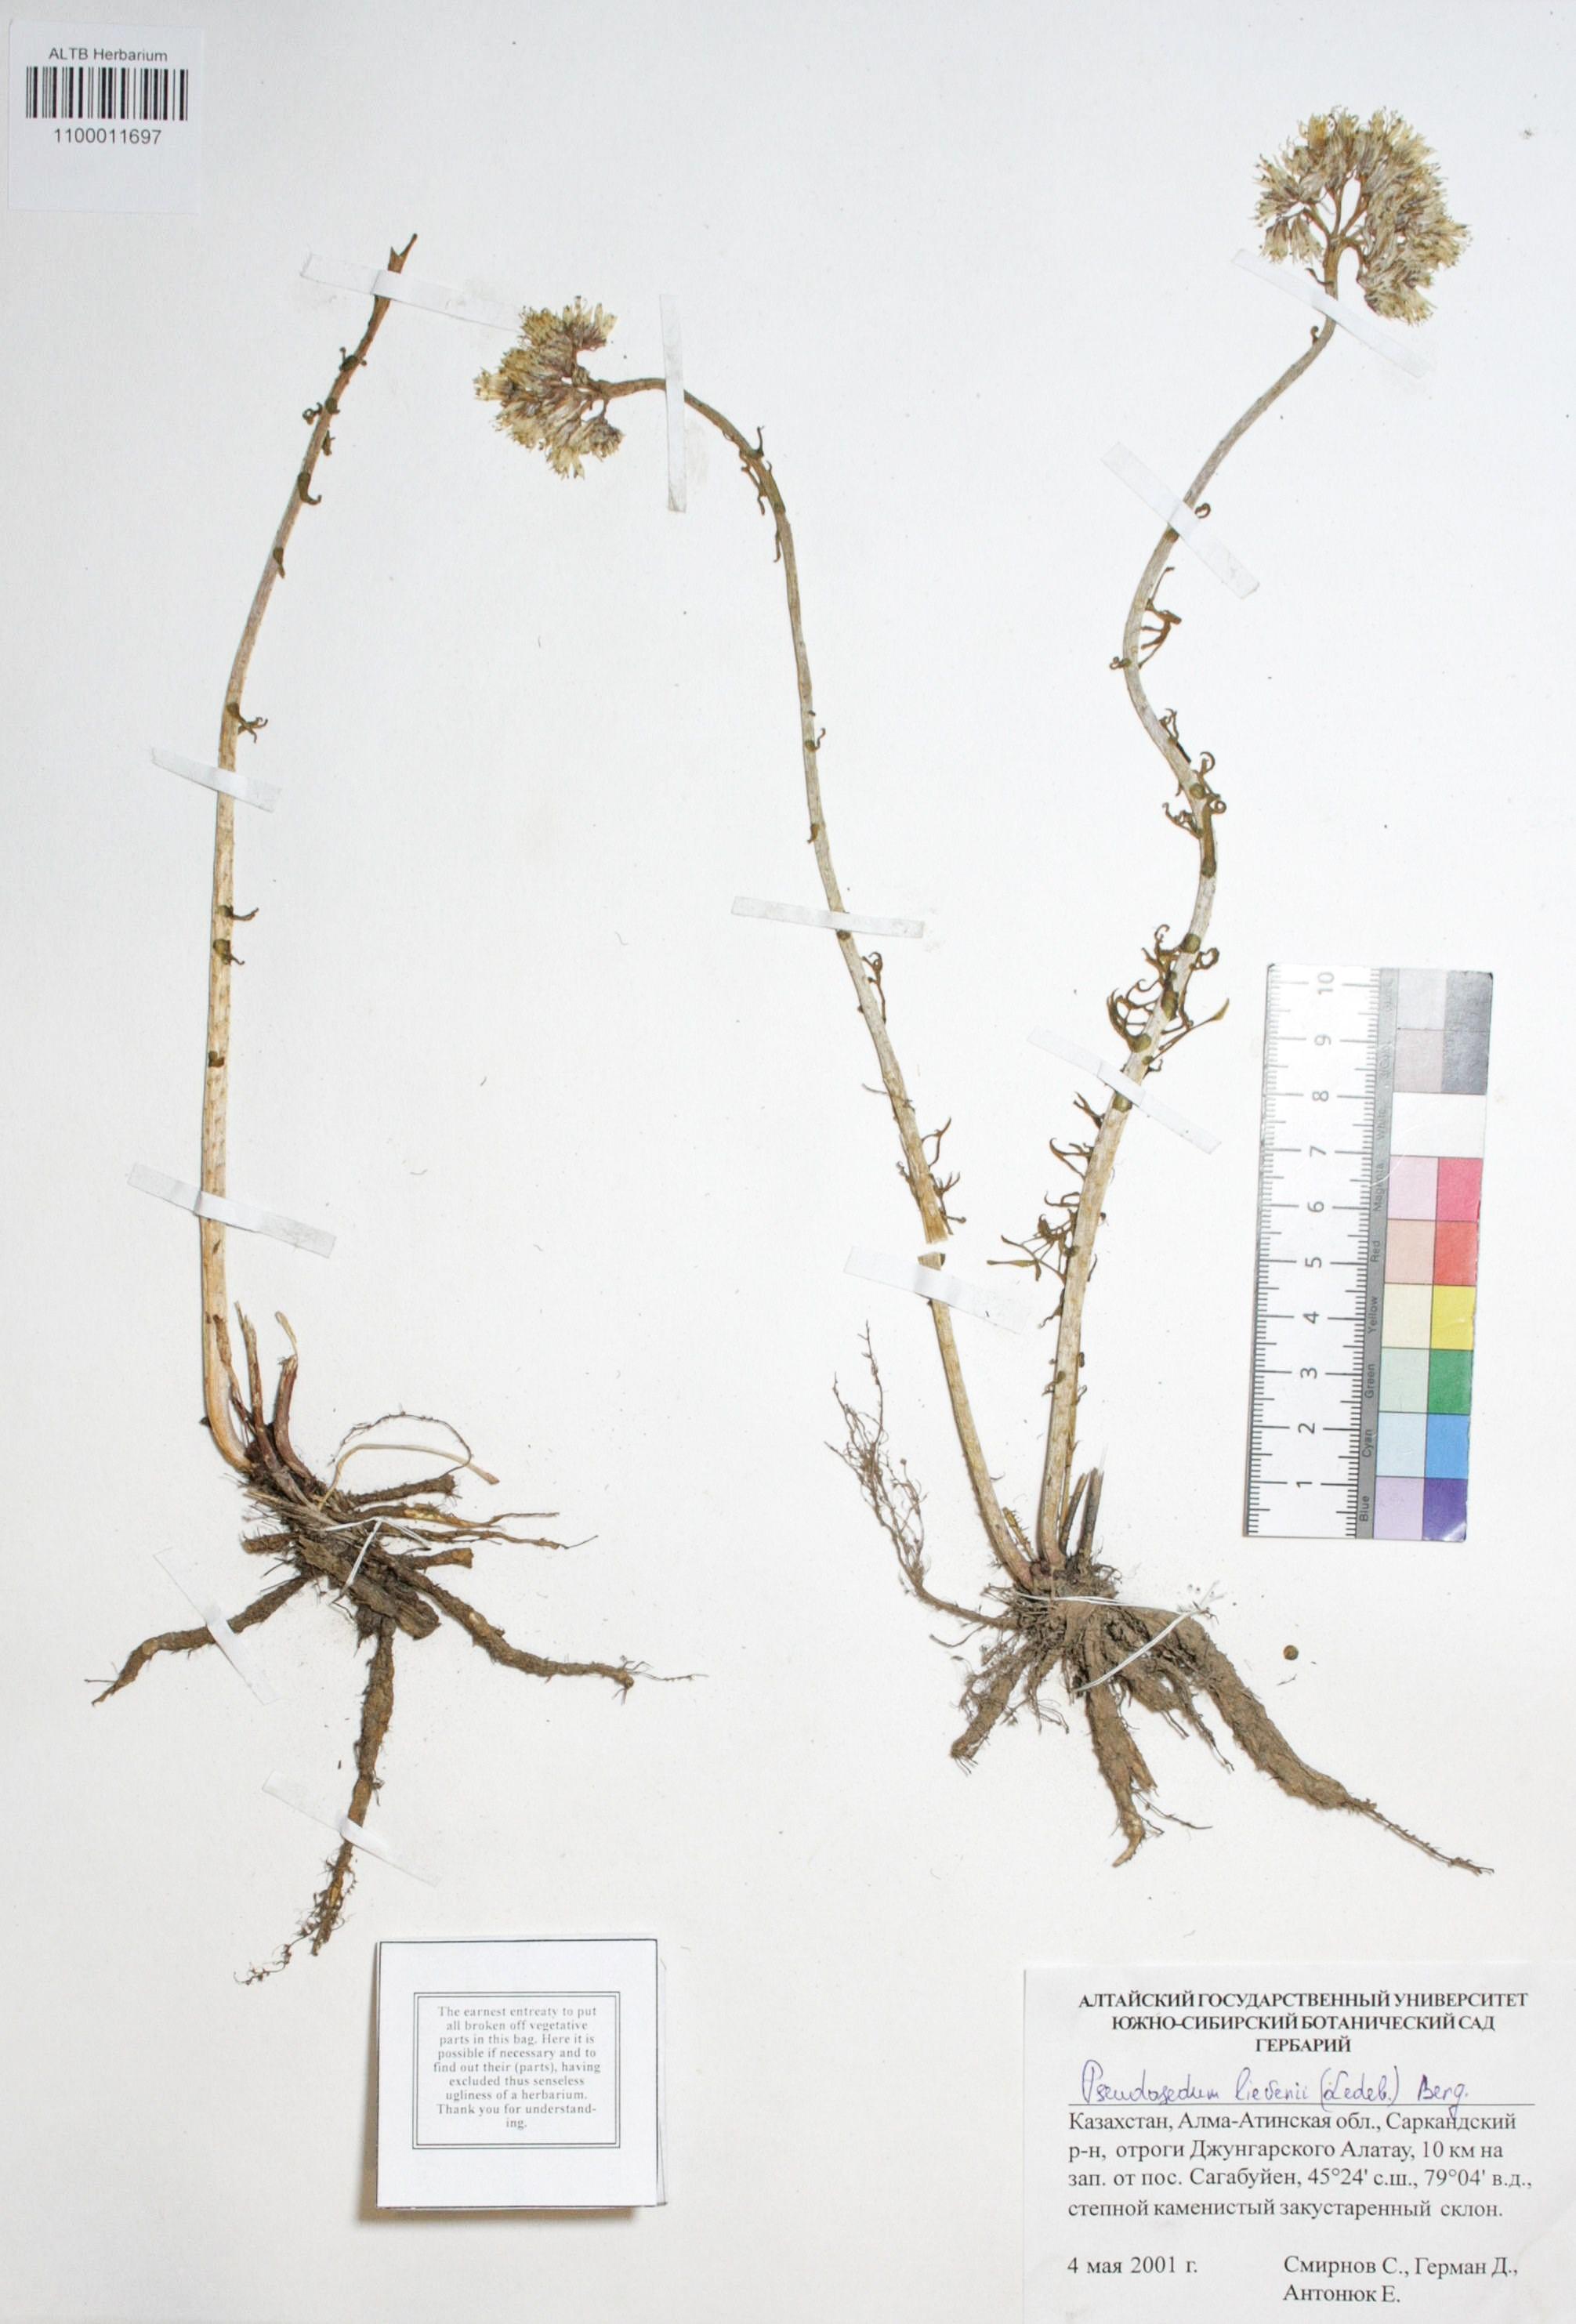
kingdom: Plantae
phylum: Tracheophyta
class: Magnoliopsida
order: Saxifragales
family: Crassulaceae
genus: Pseudosedum
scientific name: Pseudosedum lievenii
